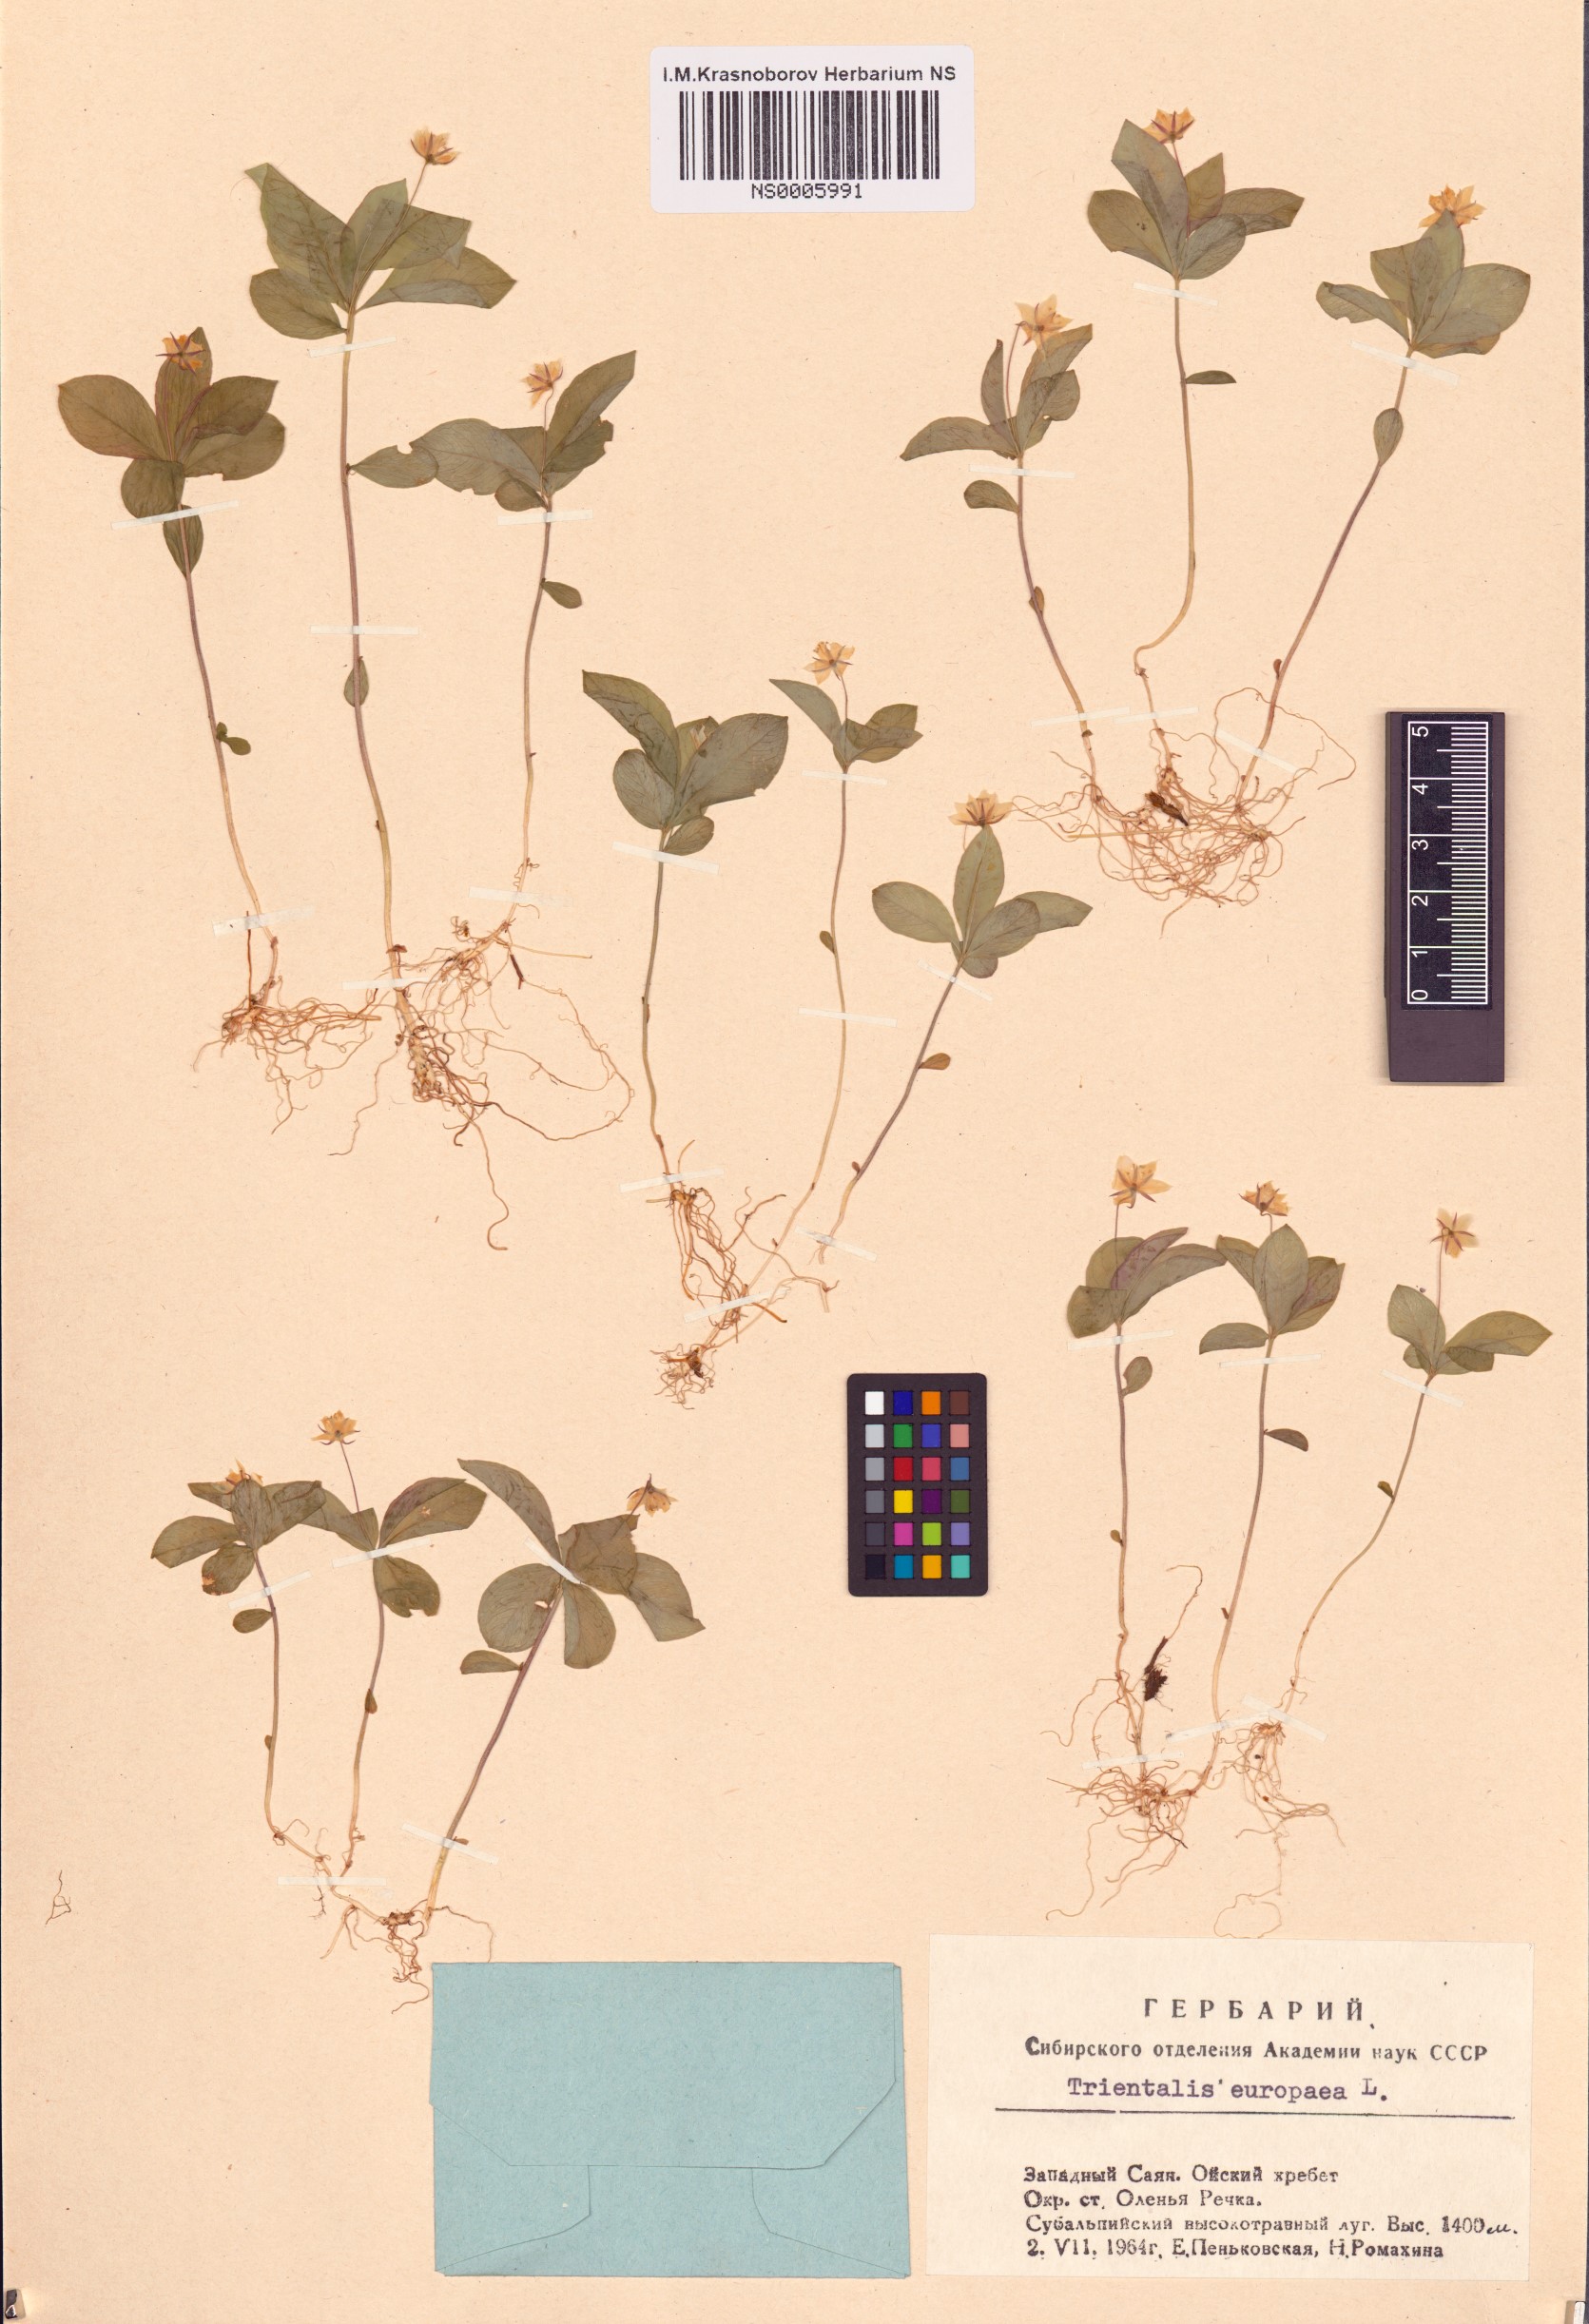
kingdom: Plantae
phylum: Tracheophyta
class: Magnoliopsida
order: Ericales
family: Primulaceae
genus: Lysimachia
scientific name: Lysimachia europaea
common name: Arctic starflower
